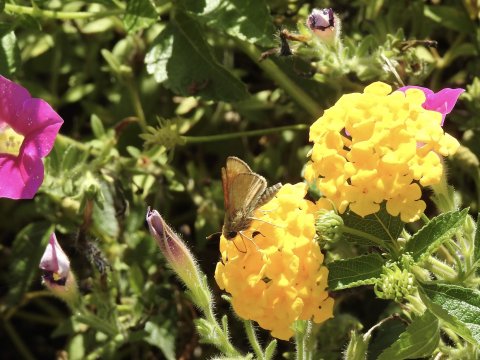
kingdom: Animalia
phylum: Arthropoda
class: Insecta
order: Lepidoptera
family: Hesperiidae
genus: Polites
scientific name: Polites themistocles
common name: Tawny-edged Skipper
